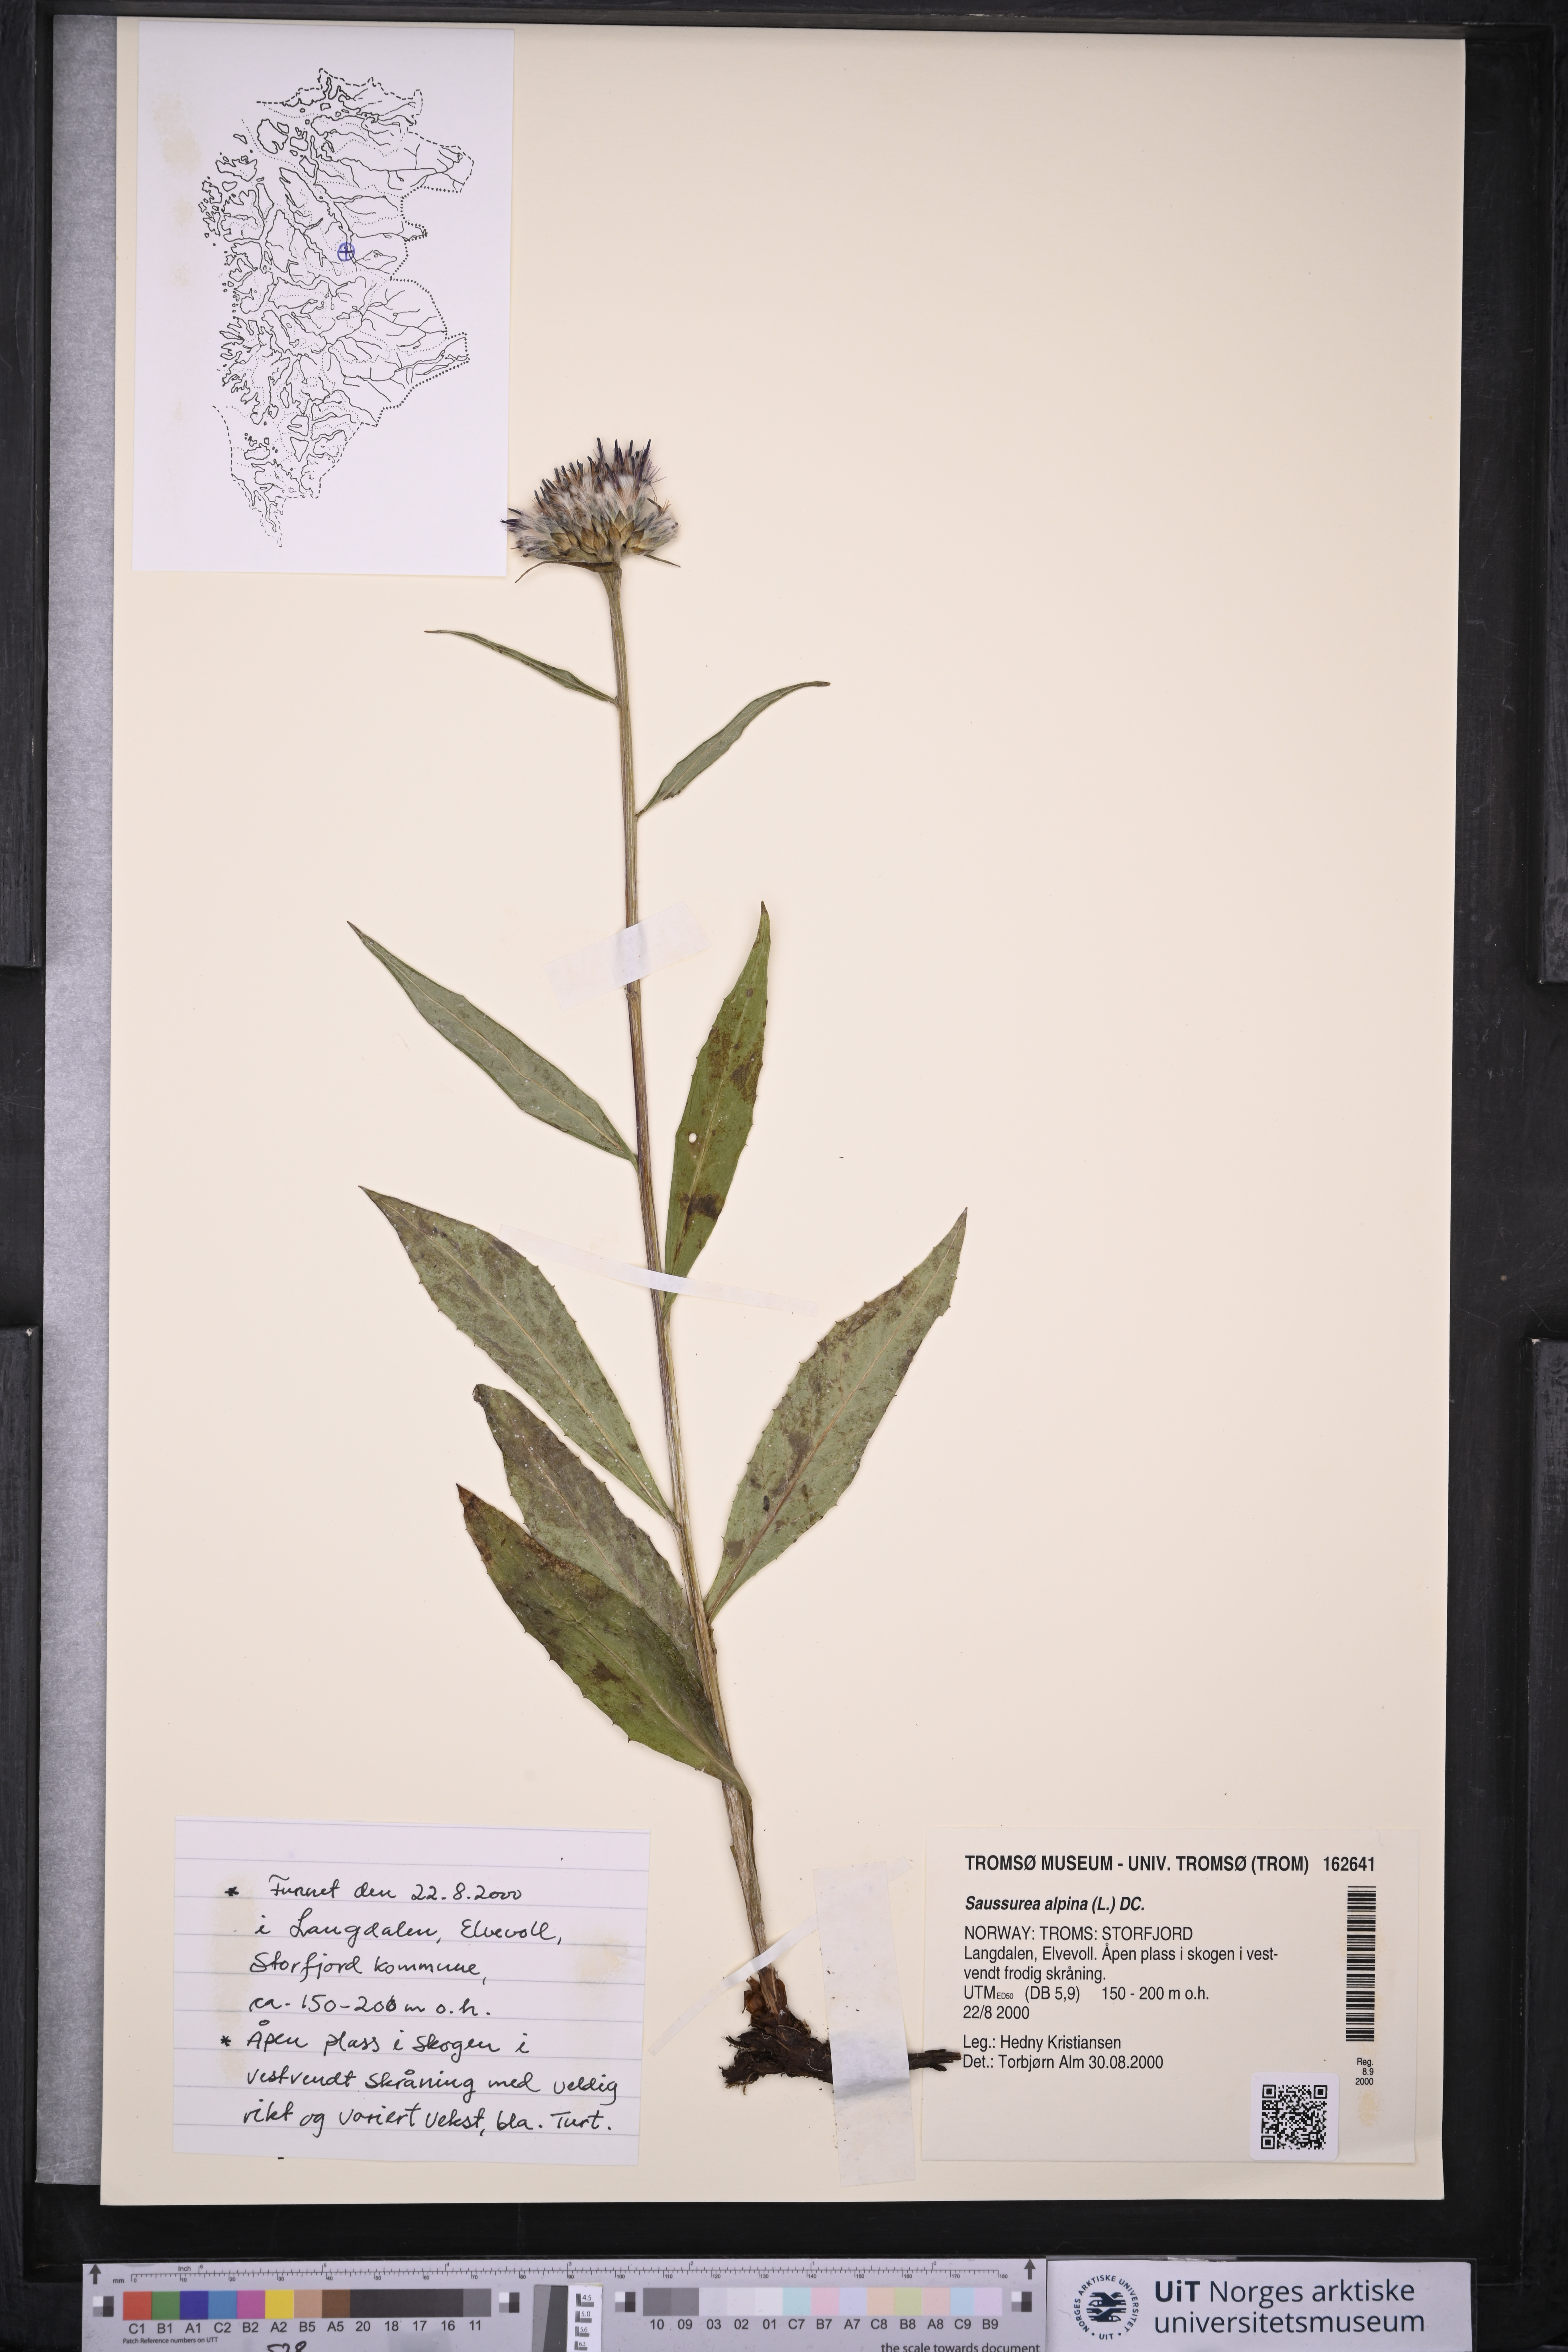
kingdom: Plantae
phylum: Tracheophyta
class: Magnoliopsida
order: Asterales
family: Asteraceae
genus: Saussurea
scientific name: Saussurea alpina
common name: Alpine saw-wort
